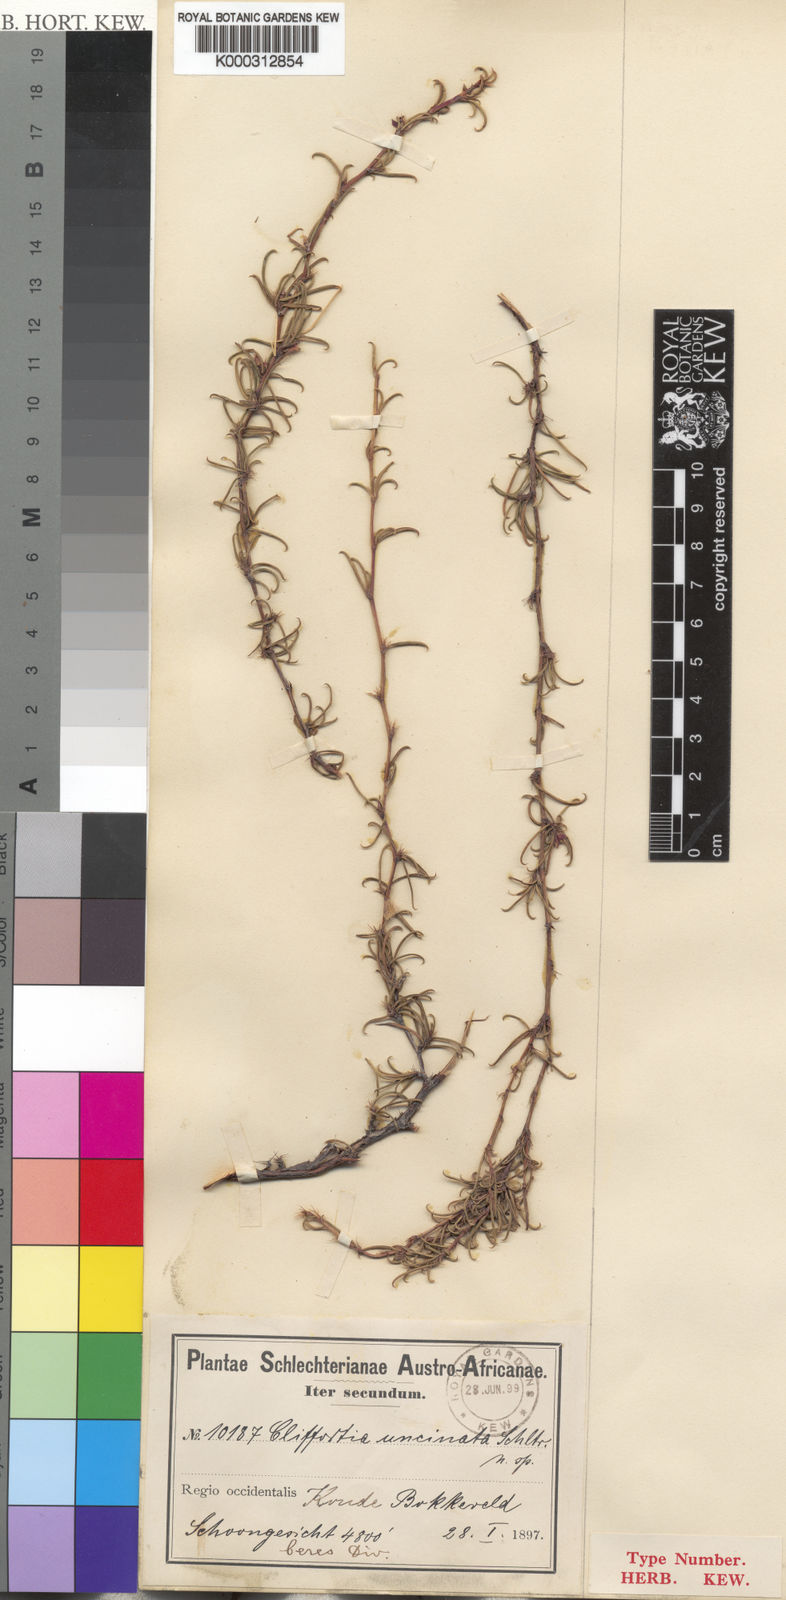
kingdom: Plantae
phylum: Tracheophyta
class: Magnoliopsida
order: Rosales
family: Rosaceae
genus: Cliffortia
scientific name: Cliffortia
